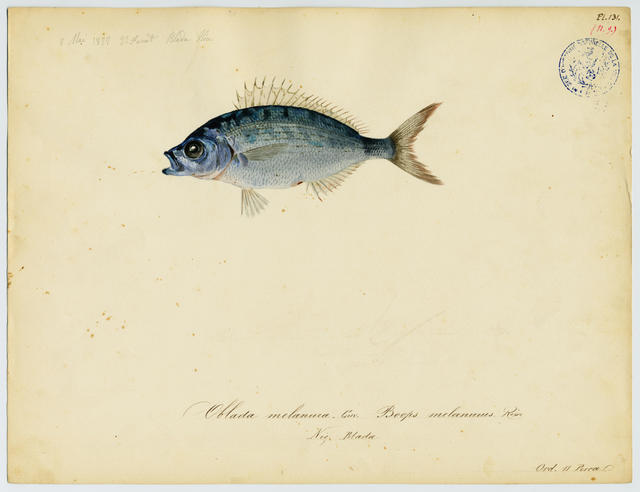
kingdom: Animalia
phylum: Chordata
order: Perciformes
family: Sparidae
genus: Oblada
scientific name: Oblada melanura
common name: Saddled seabream
